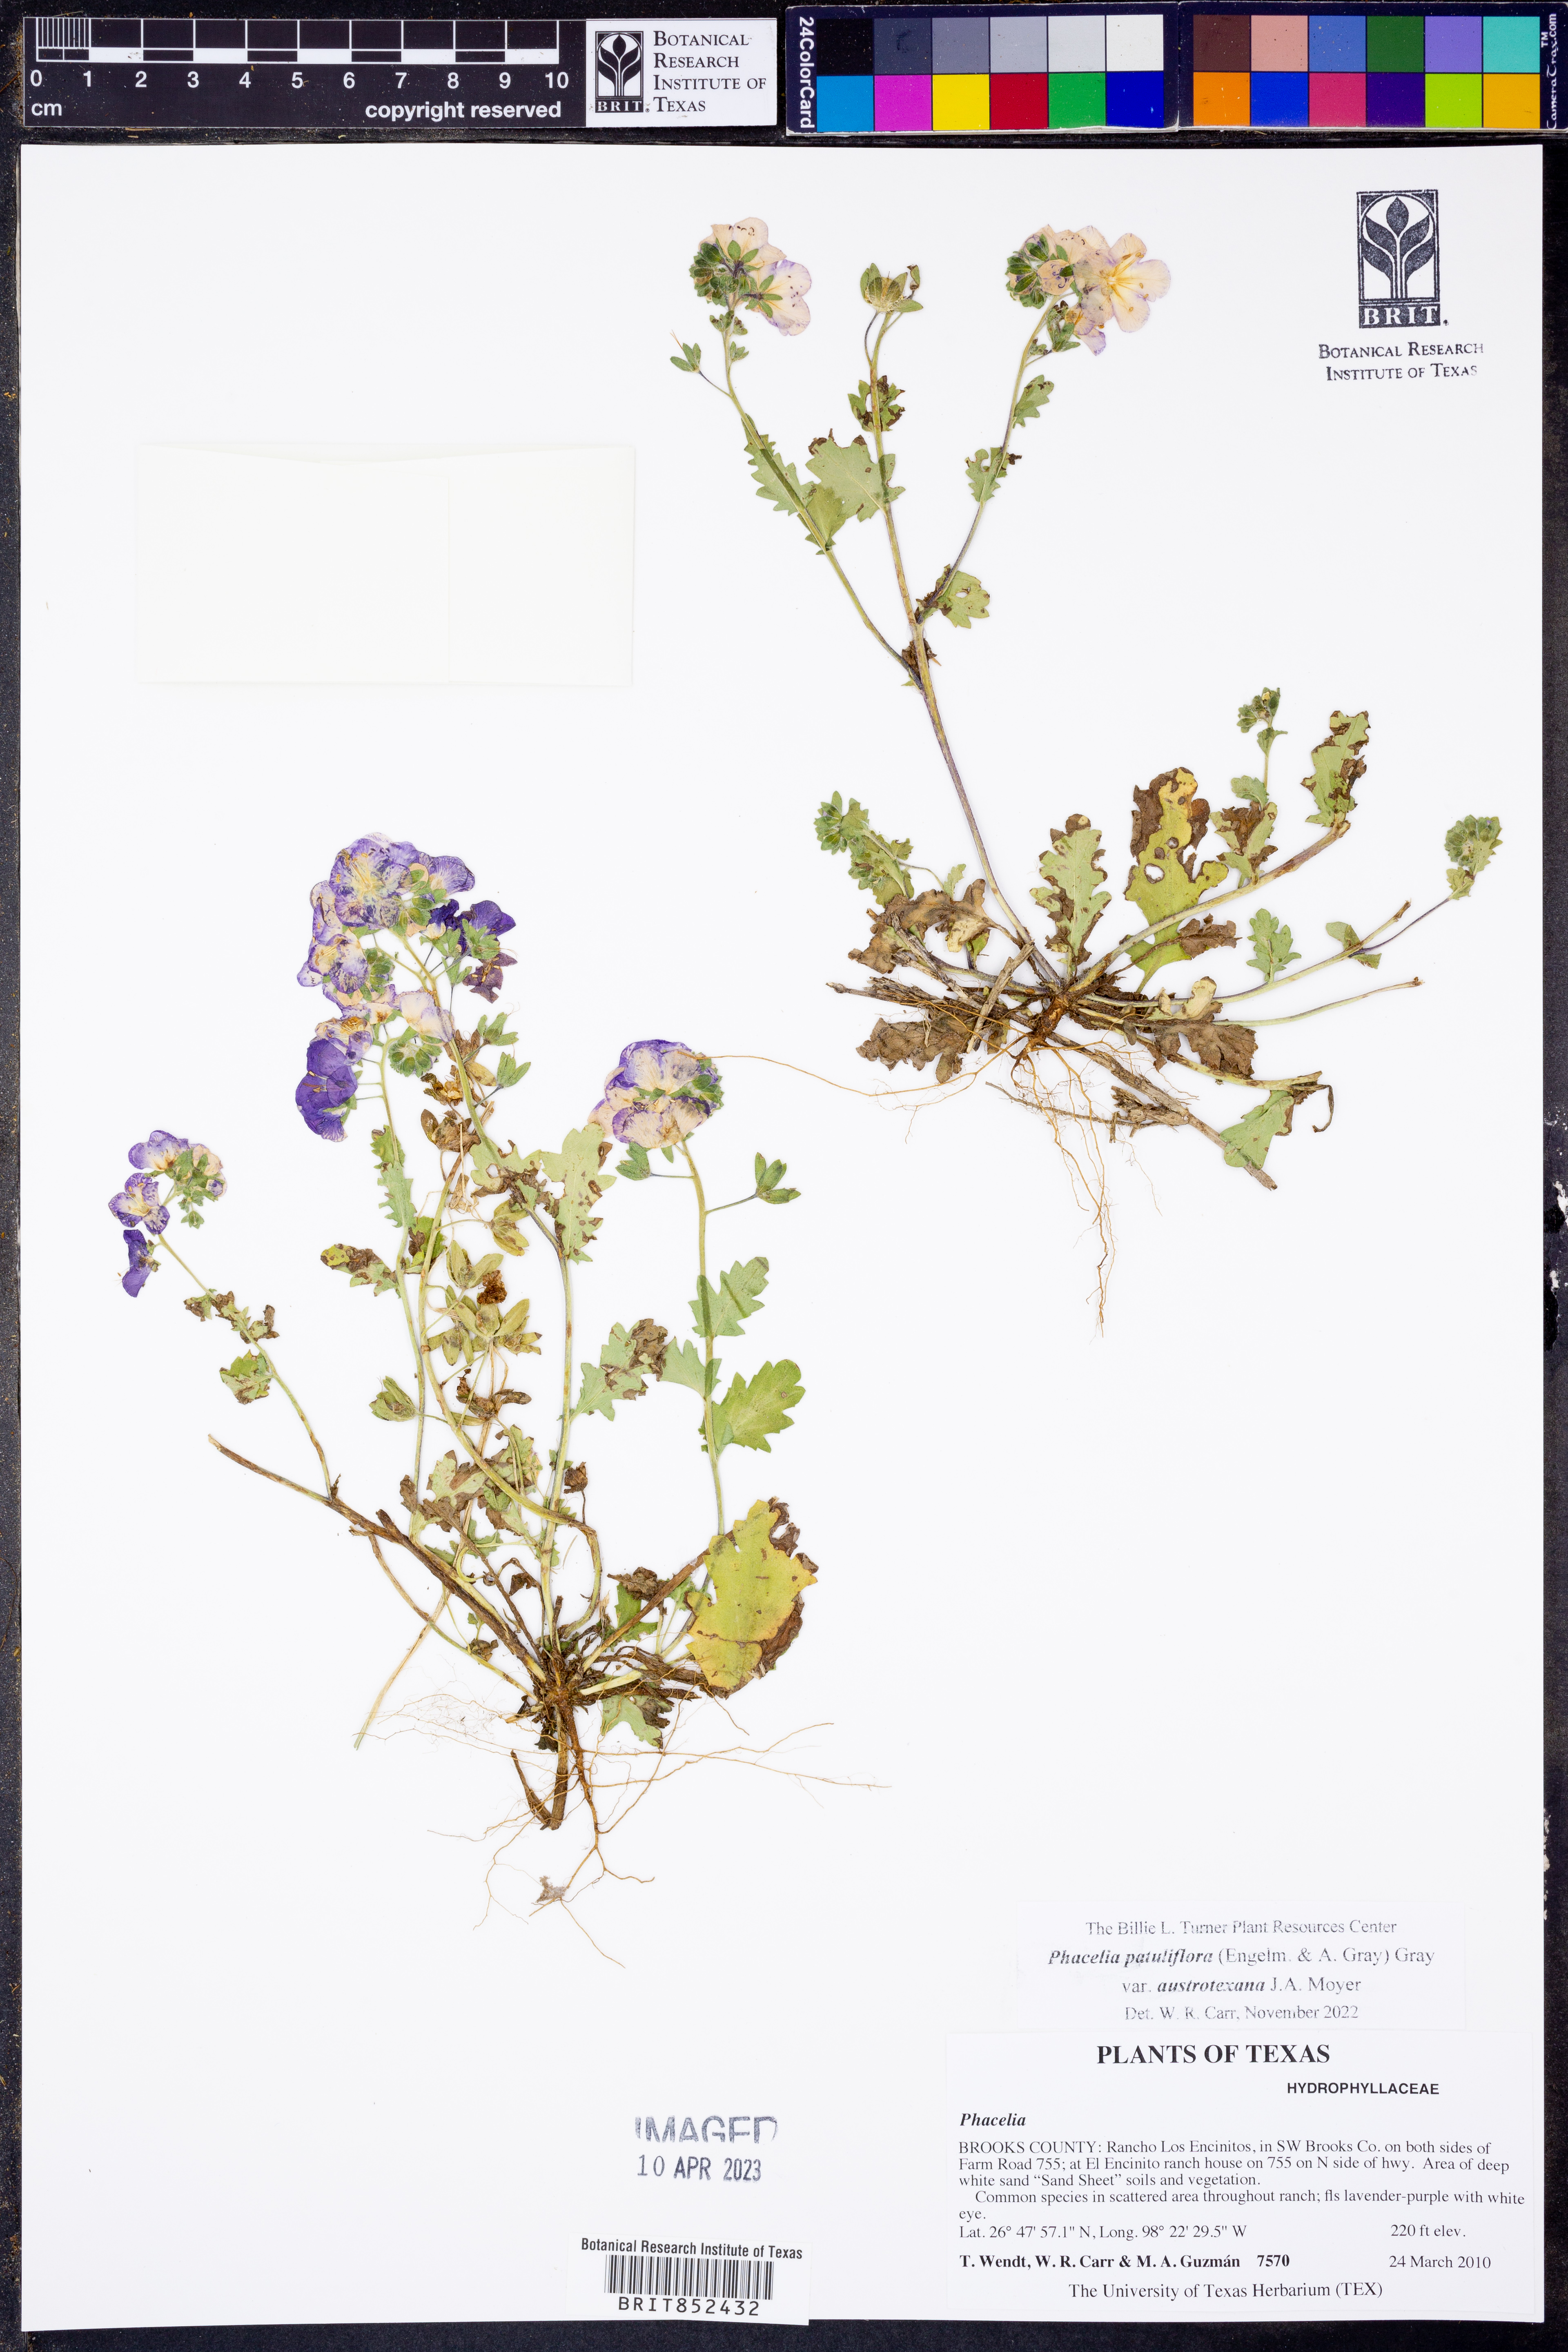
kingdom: Plantae
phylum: Tracheophyta
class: Magnoliopsida
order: Boraginales
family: Hydrophyllaceae
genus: Phacelia
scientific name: Phacelia patuliflora
